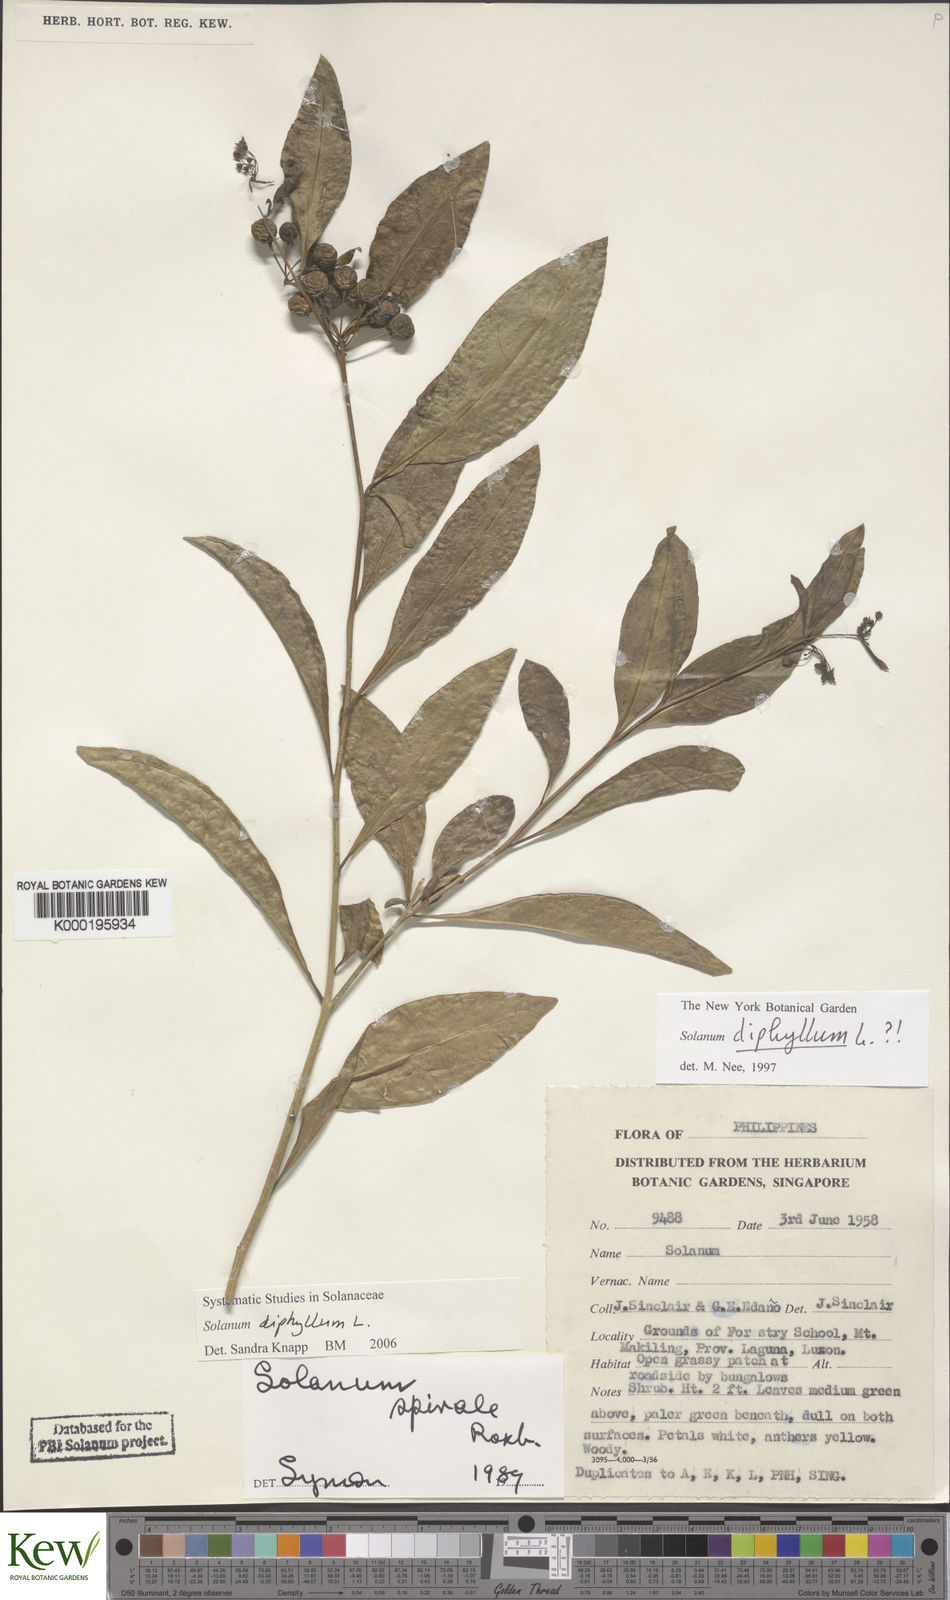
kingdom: Plantae
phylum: Tracheophyta
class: Magnoliopsida
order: Solanales
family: Solanaceae
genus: Solanum
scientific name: Solanum diphyllum
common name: Twoleaf nightshade
